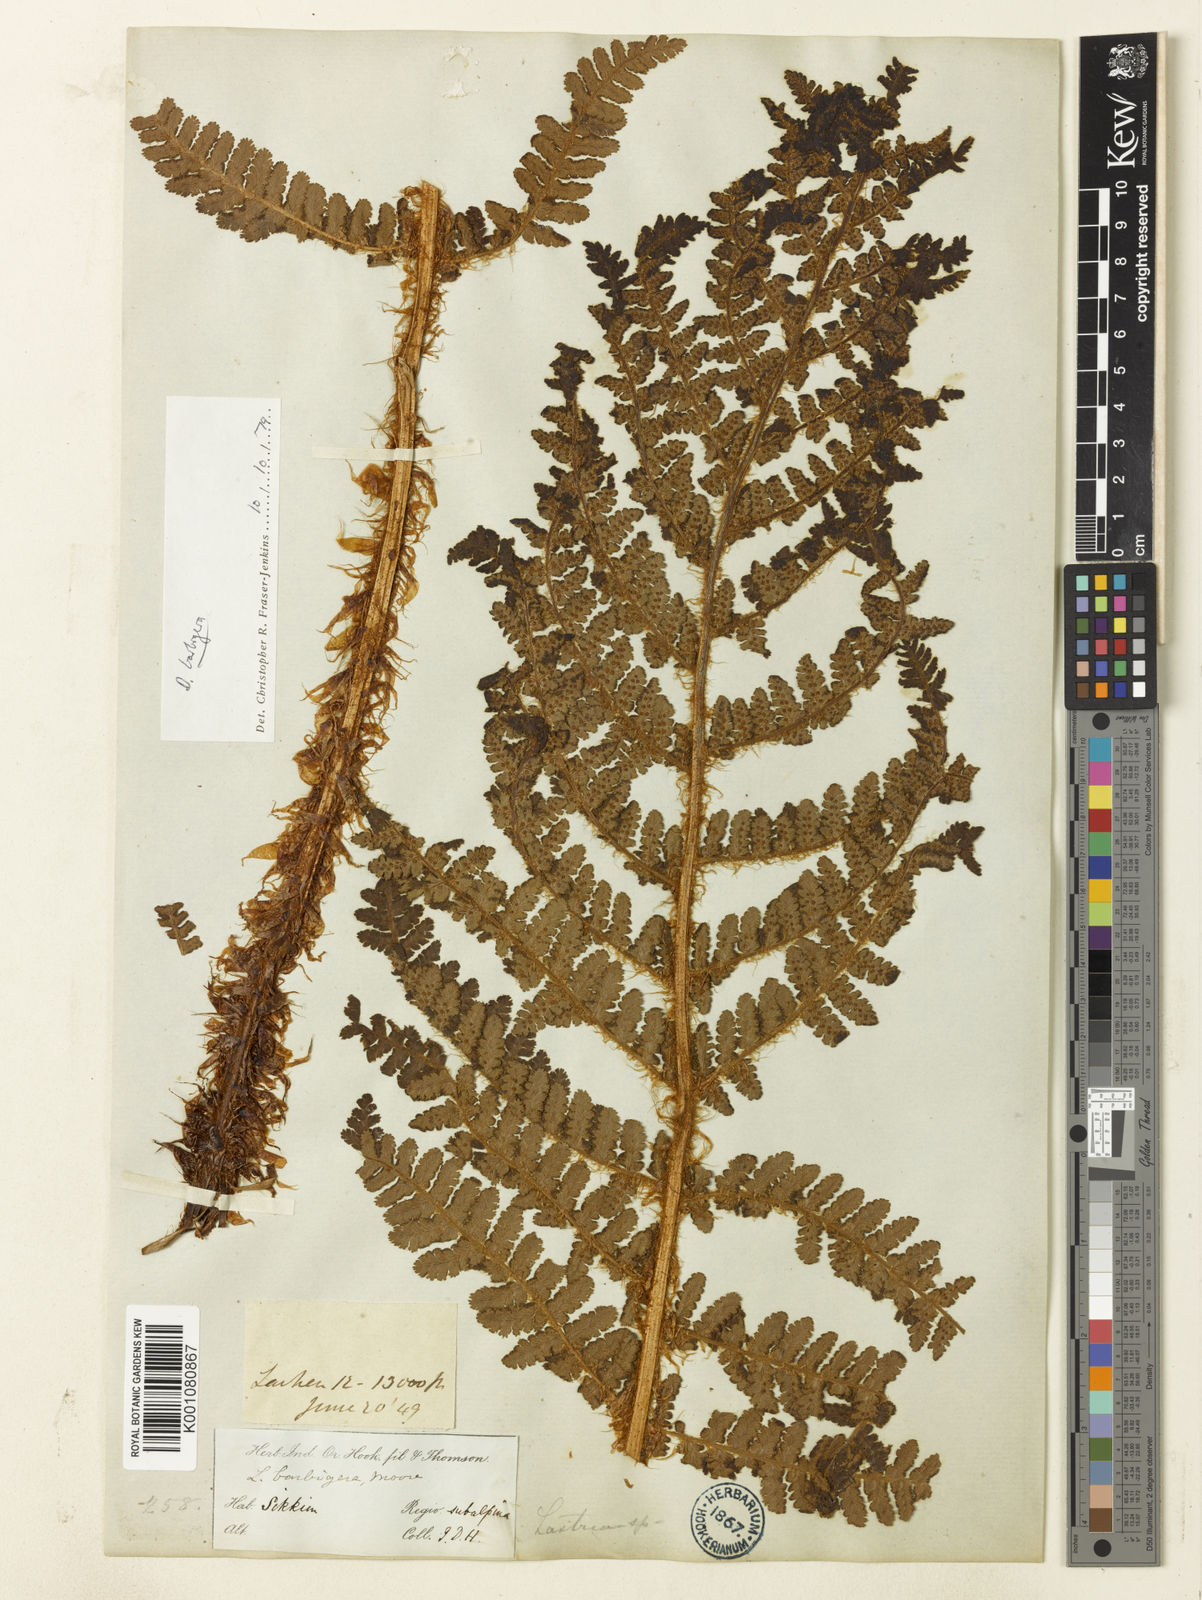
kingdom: Plantae
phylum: Tracheophyta
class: Polypodiopsida
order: Polypodiales
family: Dryopteridaceae
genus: Dryopteris
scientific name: Dryopteris barbigera
